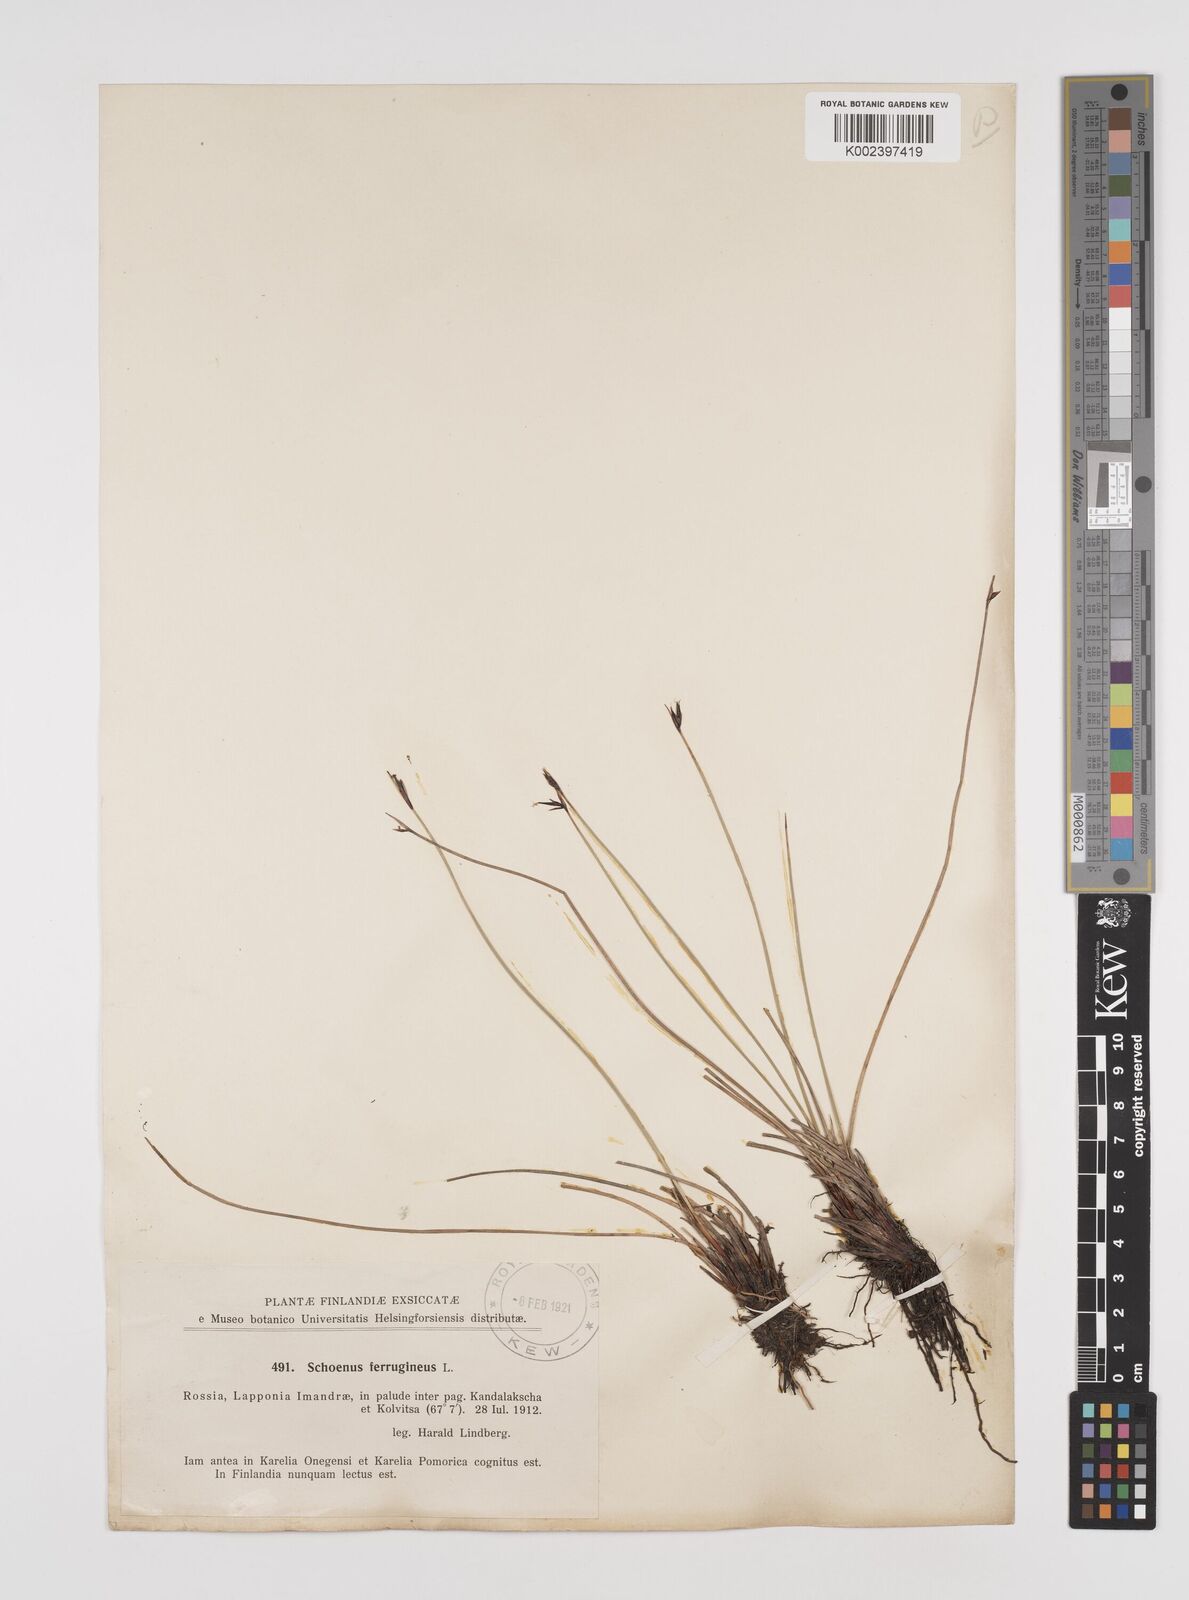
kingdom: Plantae
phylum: Tracheophyta
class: Liliopsida
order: Poales
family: Cyperaceae
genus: Schoenus
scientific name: Schoenus ferrugineus
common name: Brown bog-rush
